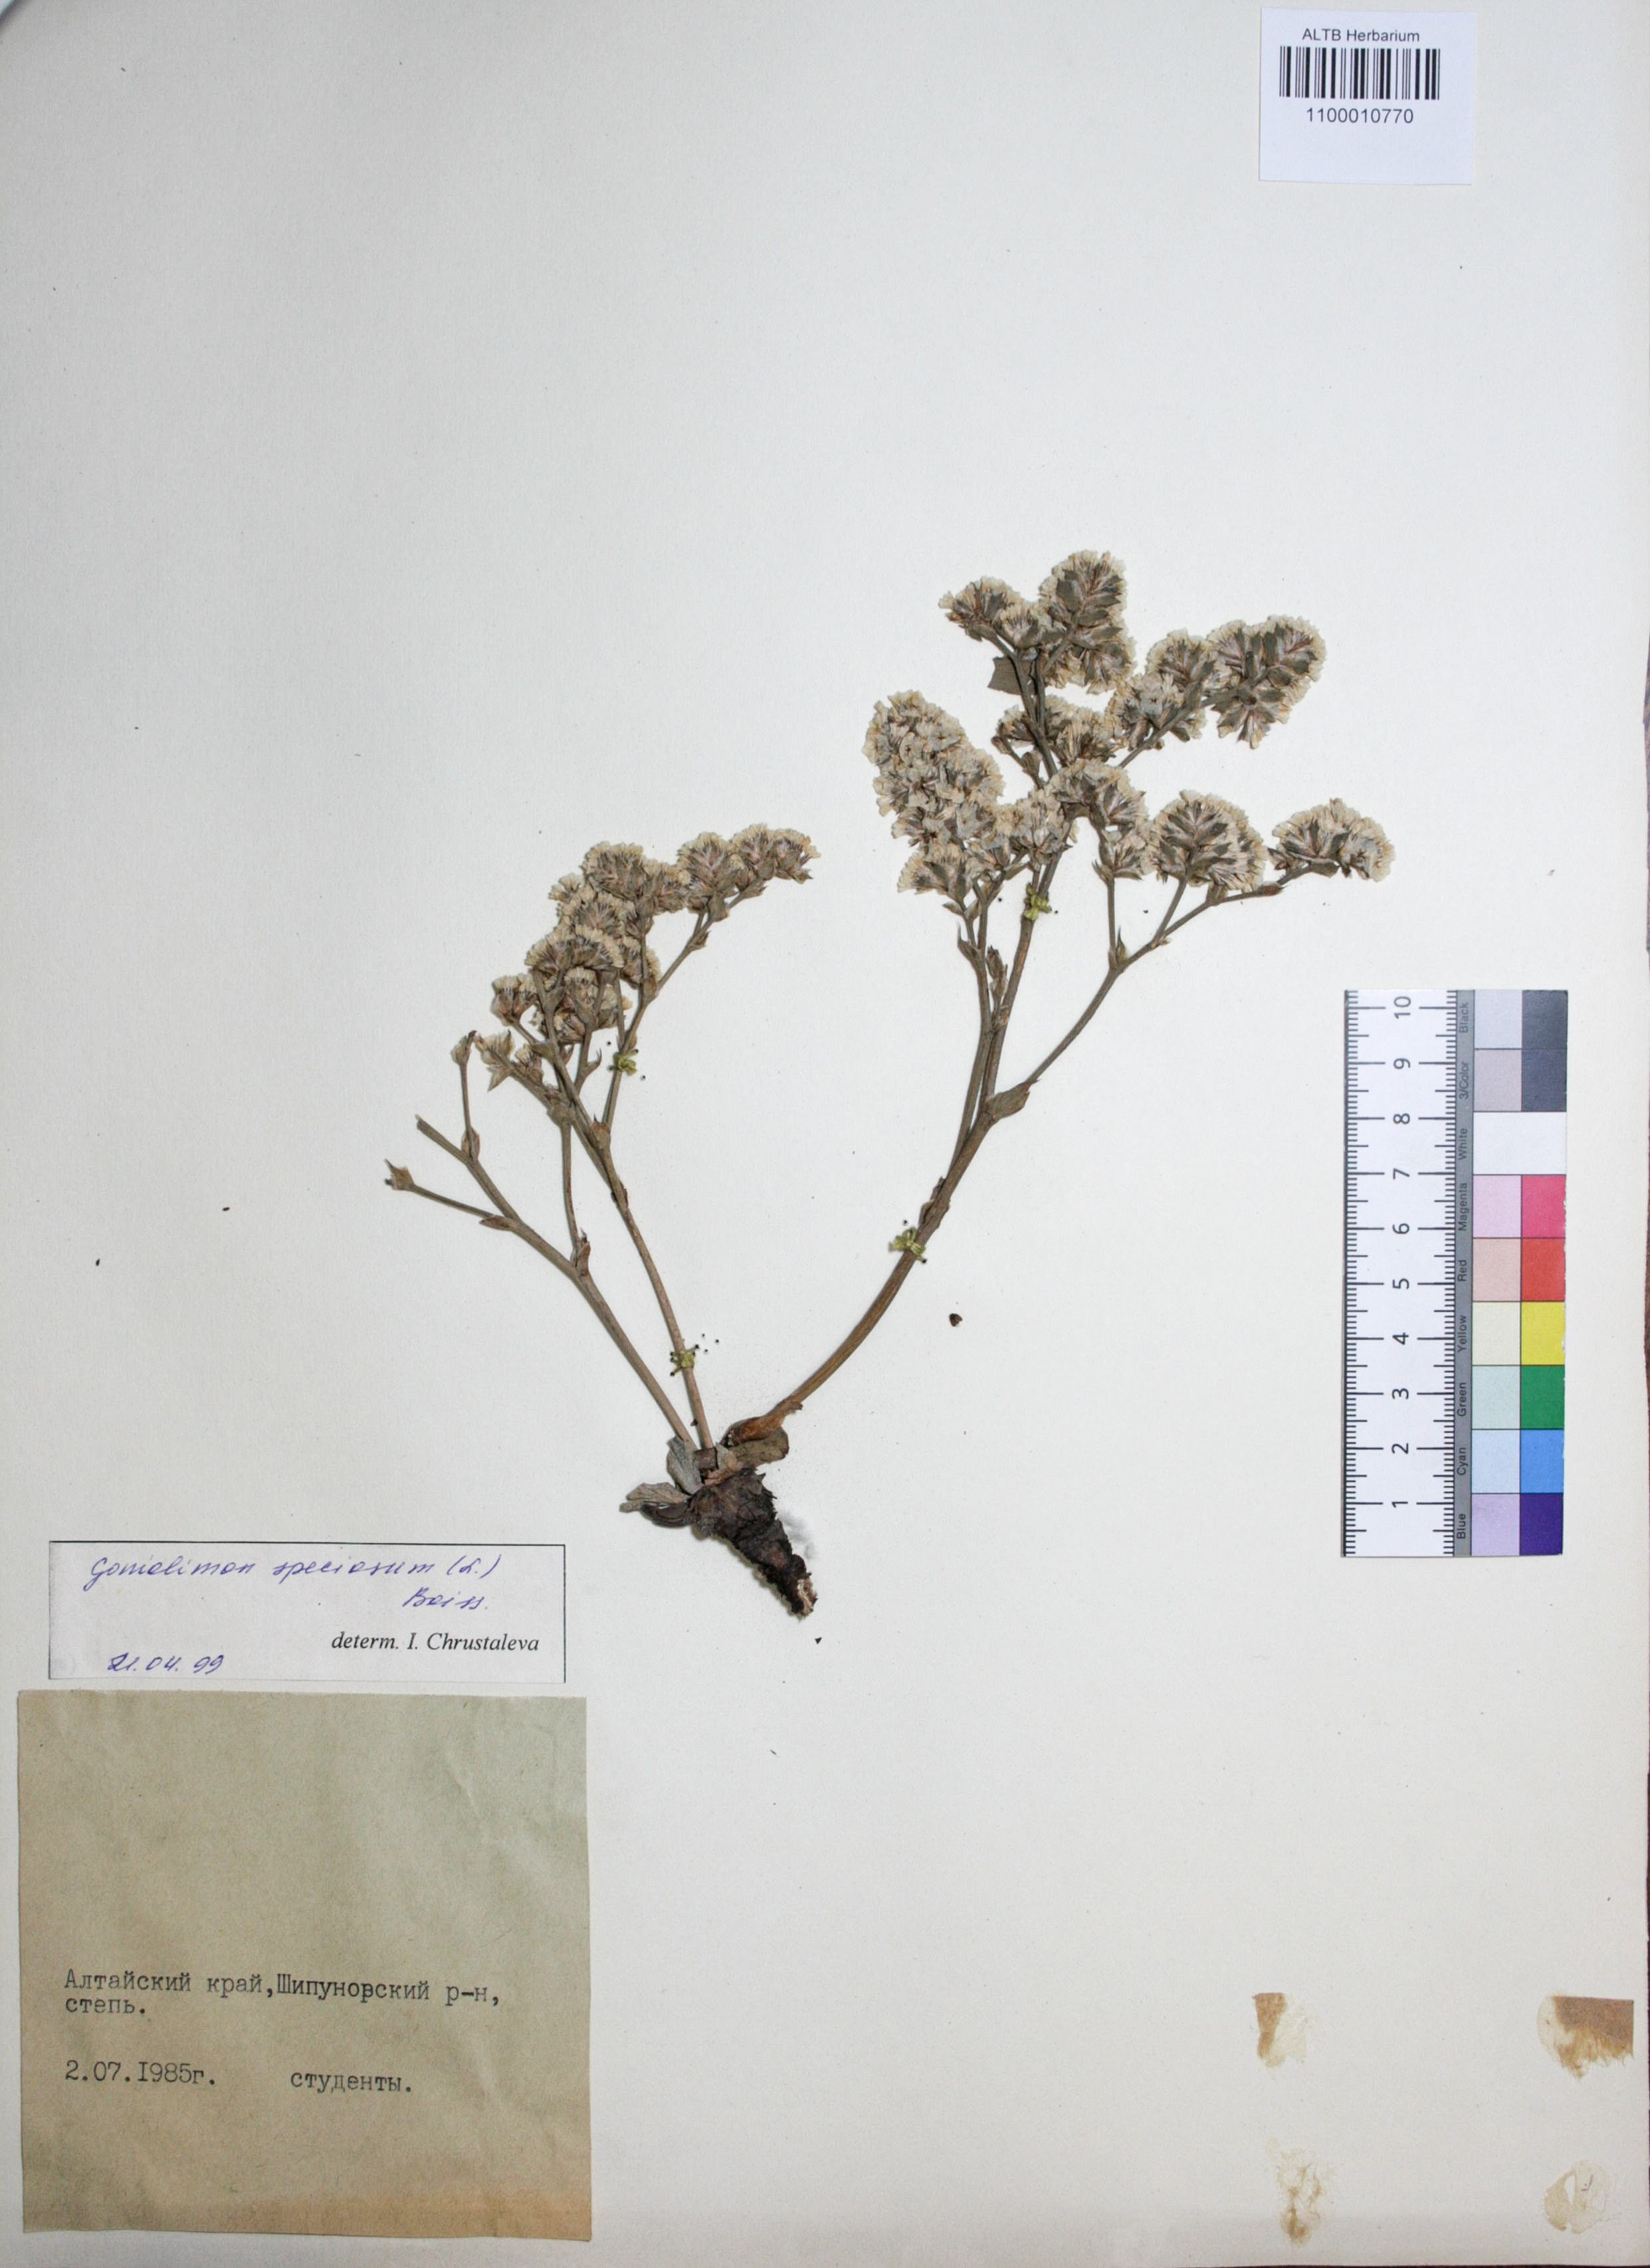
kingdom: Plantae
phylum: Tracheophyta
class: Magnoliopsida
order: Caryophyllales
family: Plumbaginaceae
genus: Goniolimon
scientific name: Goniolimon speciosum
